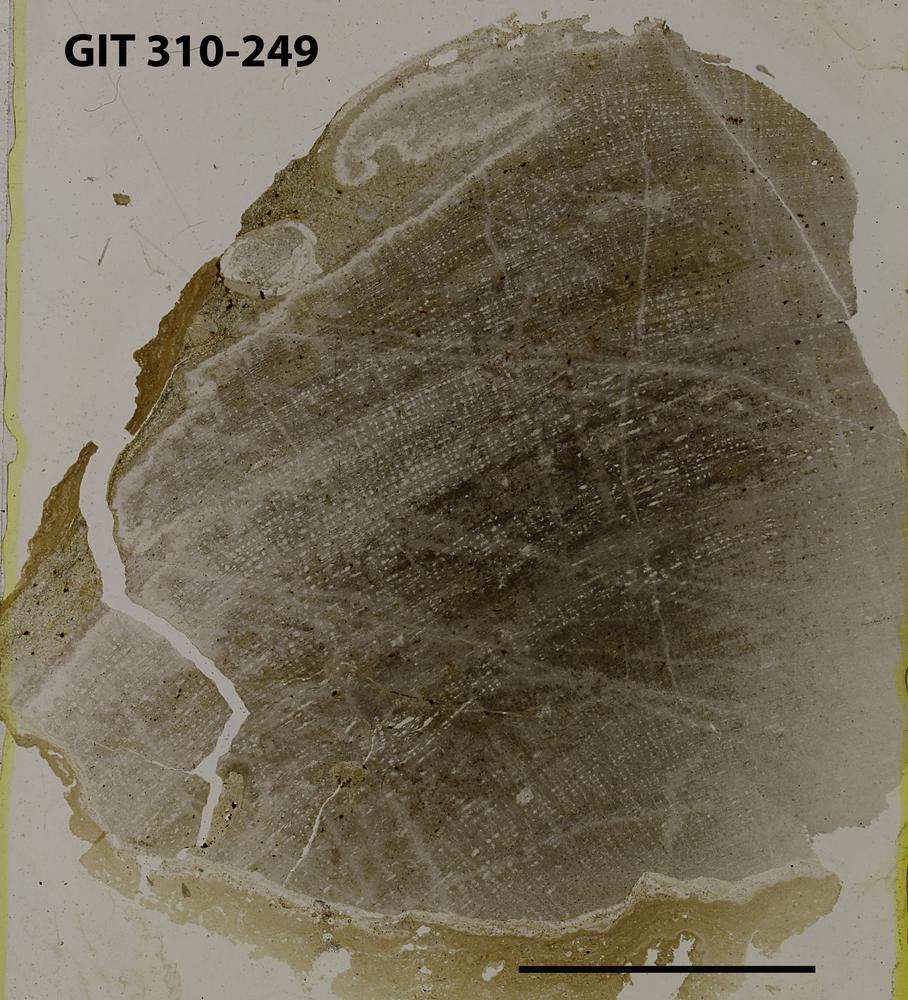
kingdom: Animalia
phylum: Porifera
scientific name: Porifera
